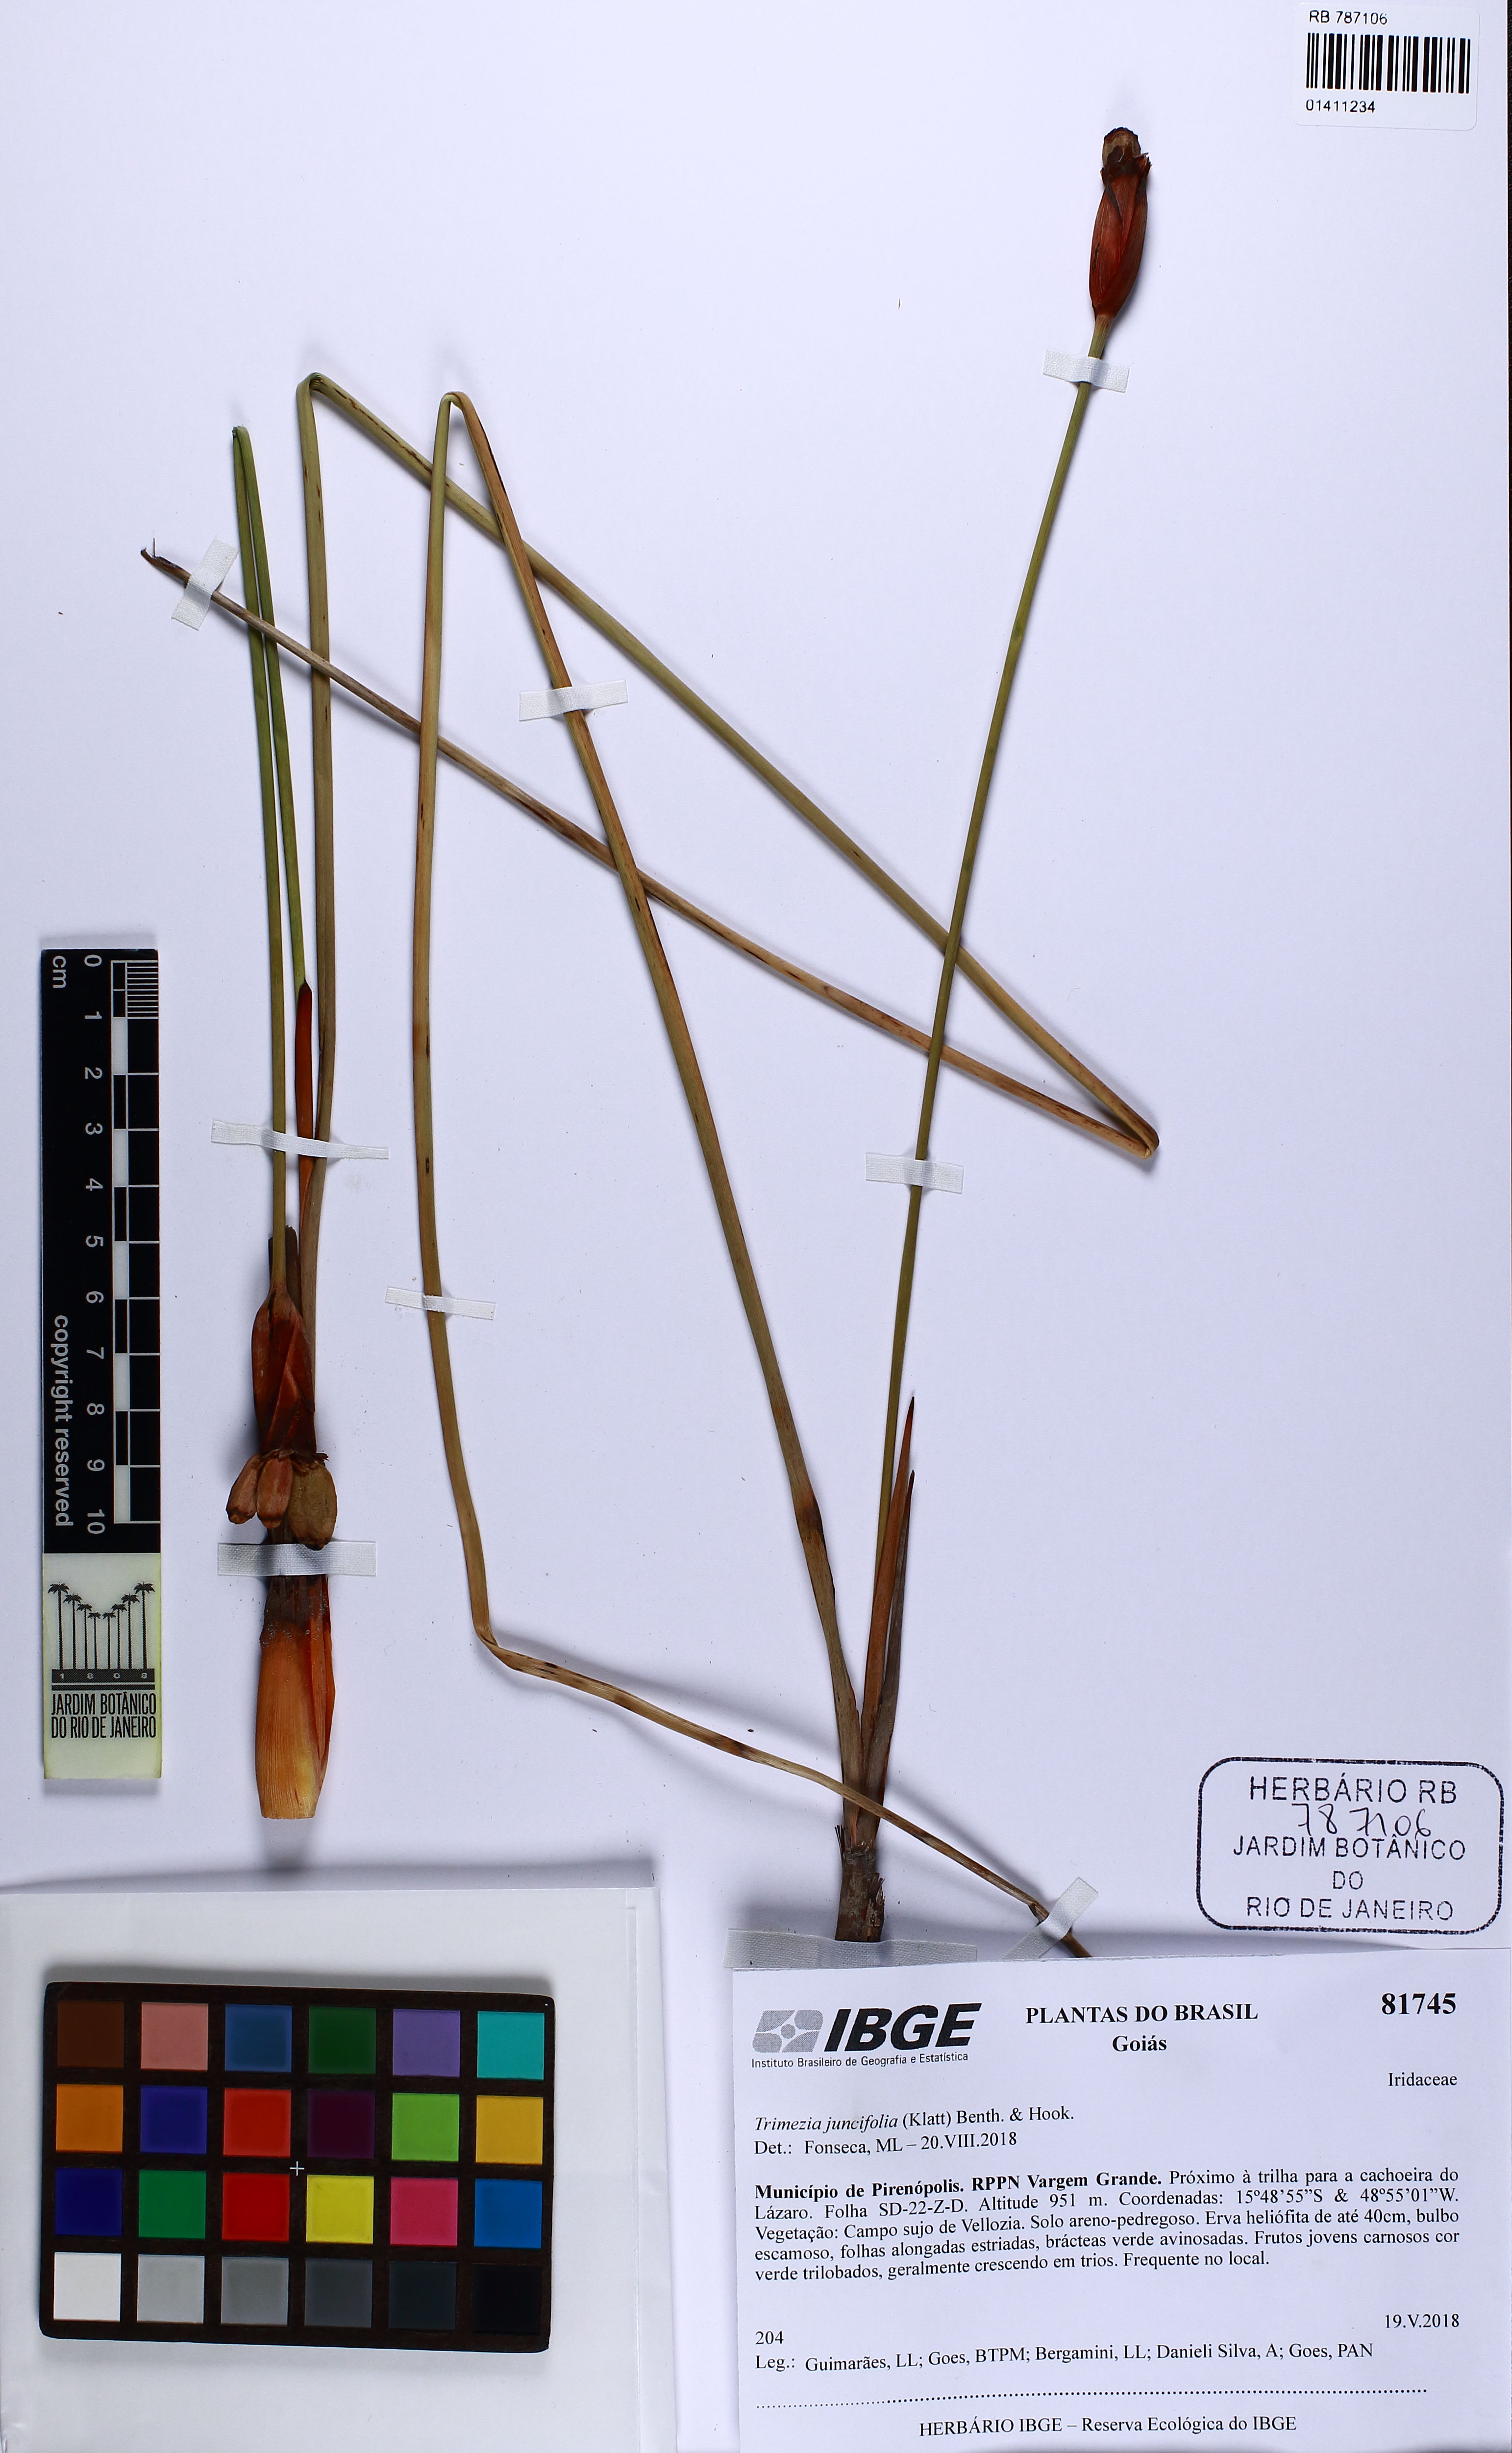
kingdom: Plantae
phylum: Tracheophyta
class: Liliopsida
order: Asparagales
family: Iridaceae
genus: Trimezia
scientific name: Trimezia juncifolia
